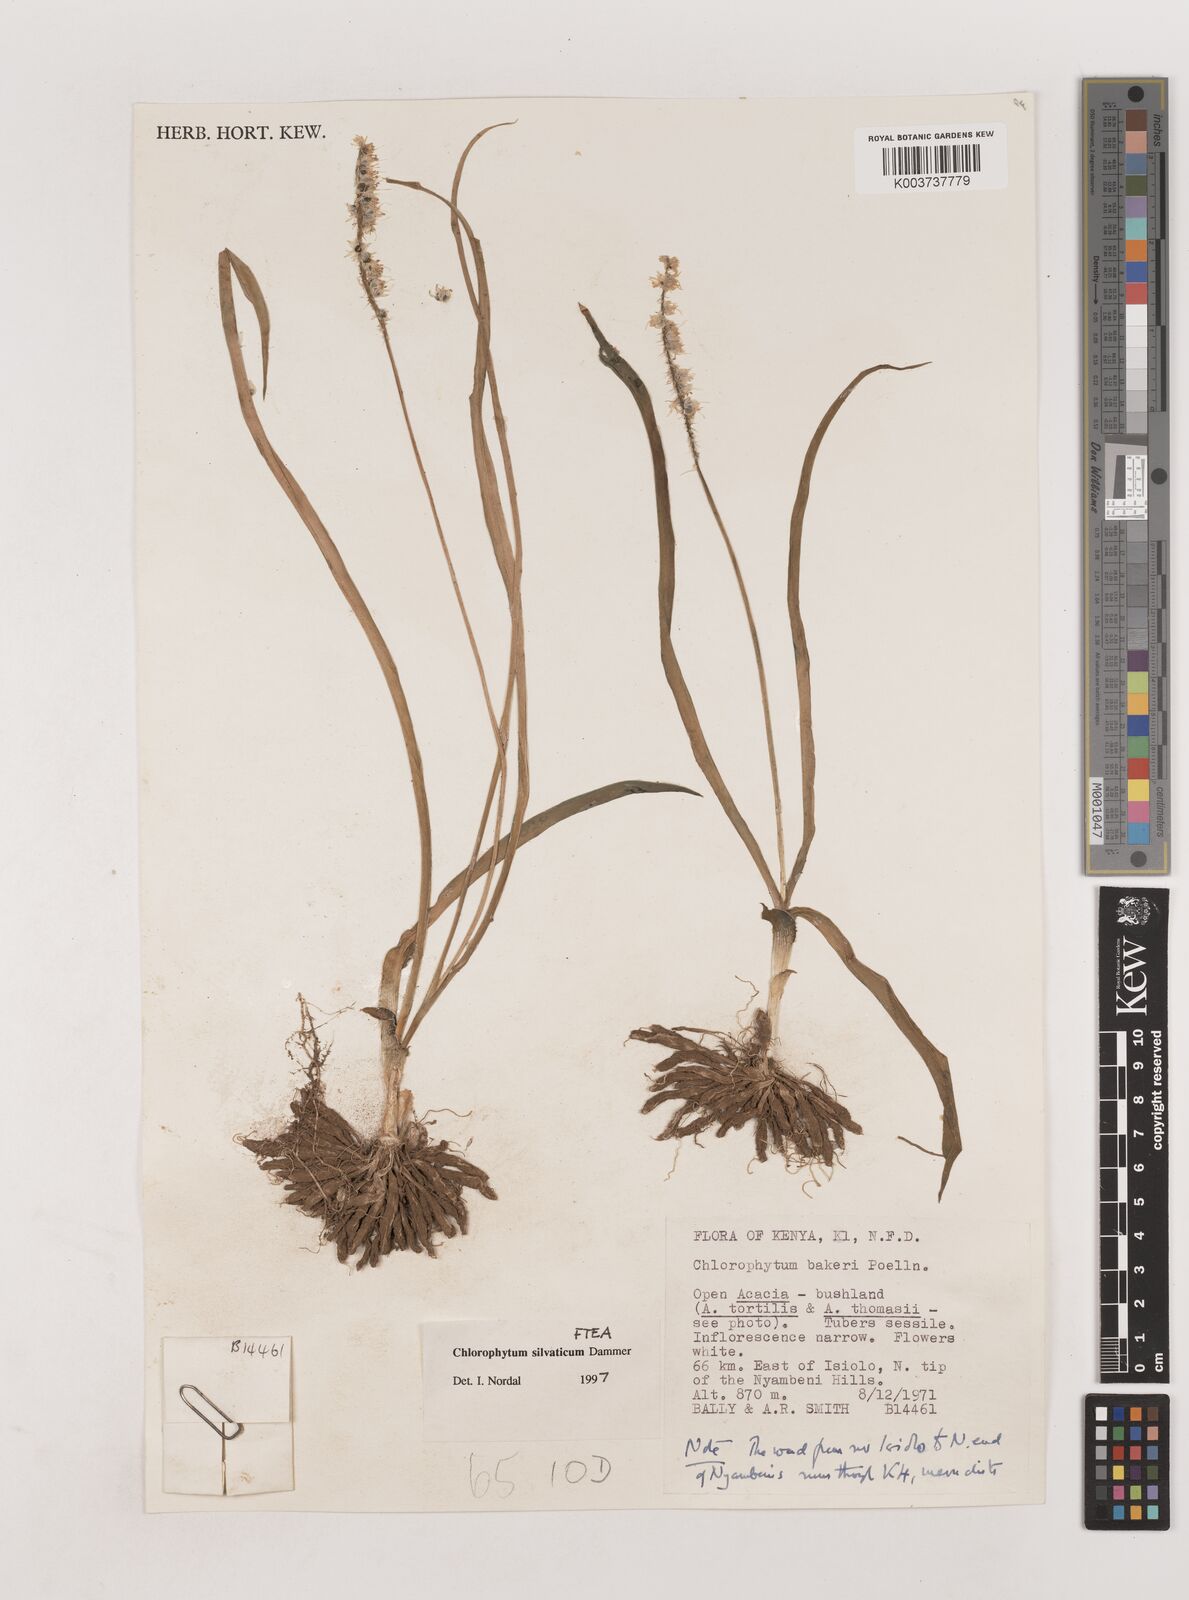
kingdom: Plantae
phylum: Tracheophyta
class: Liliopsida
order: Asparagales
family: Asparagaceae
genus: Chlorophytum
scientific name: Chlorophytum africanum
